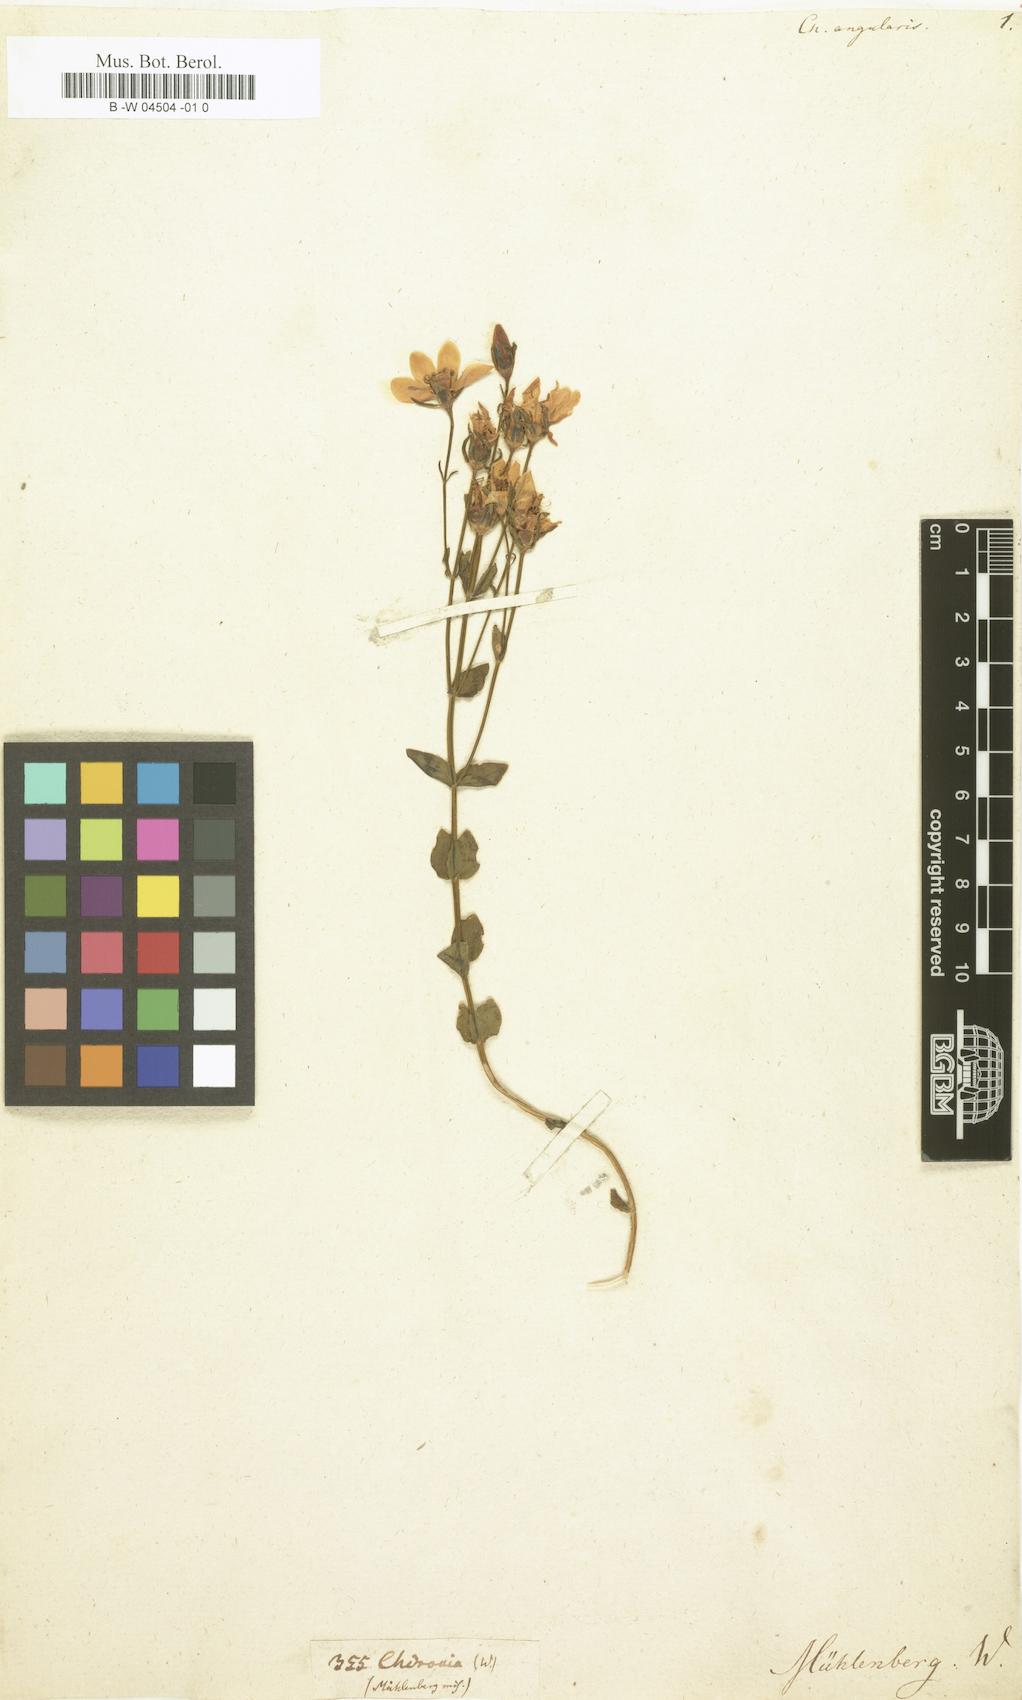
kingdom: Plantae
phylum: Tracheophyta
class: Magnoliopsida
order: Gentianales
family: Gentianaceae
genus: Sabatia
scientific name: Sabatia angularis
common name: Rose-pink
